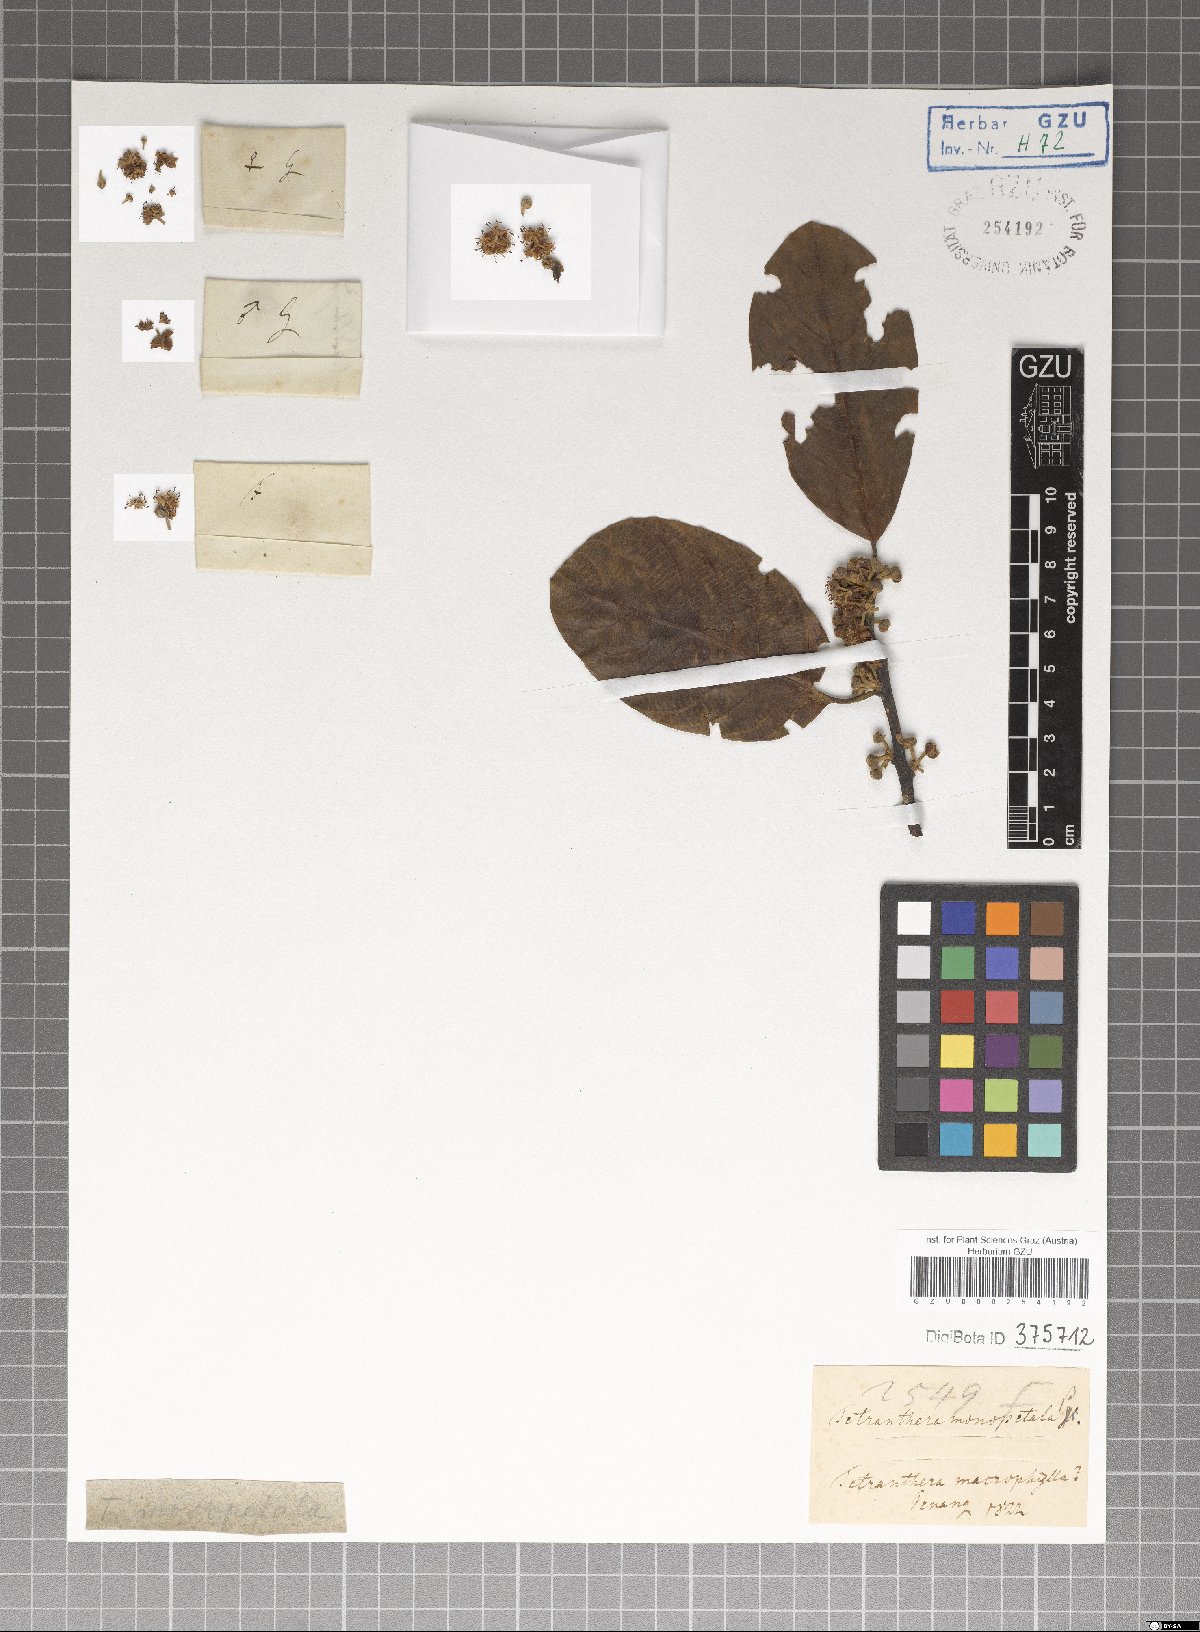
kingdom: Plantae
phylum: Tracheophyta
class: Magnoliopsida
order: Laurales
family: Lauraceae
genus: Litsea
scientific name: Litsea monopetala
